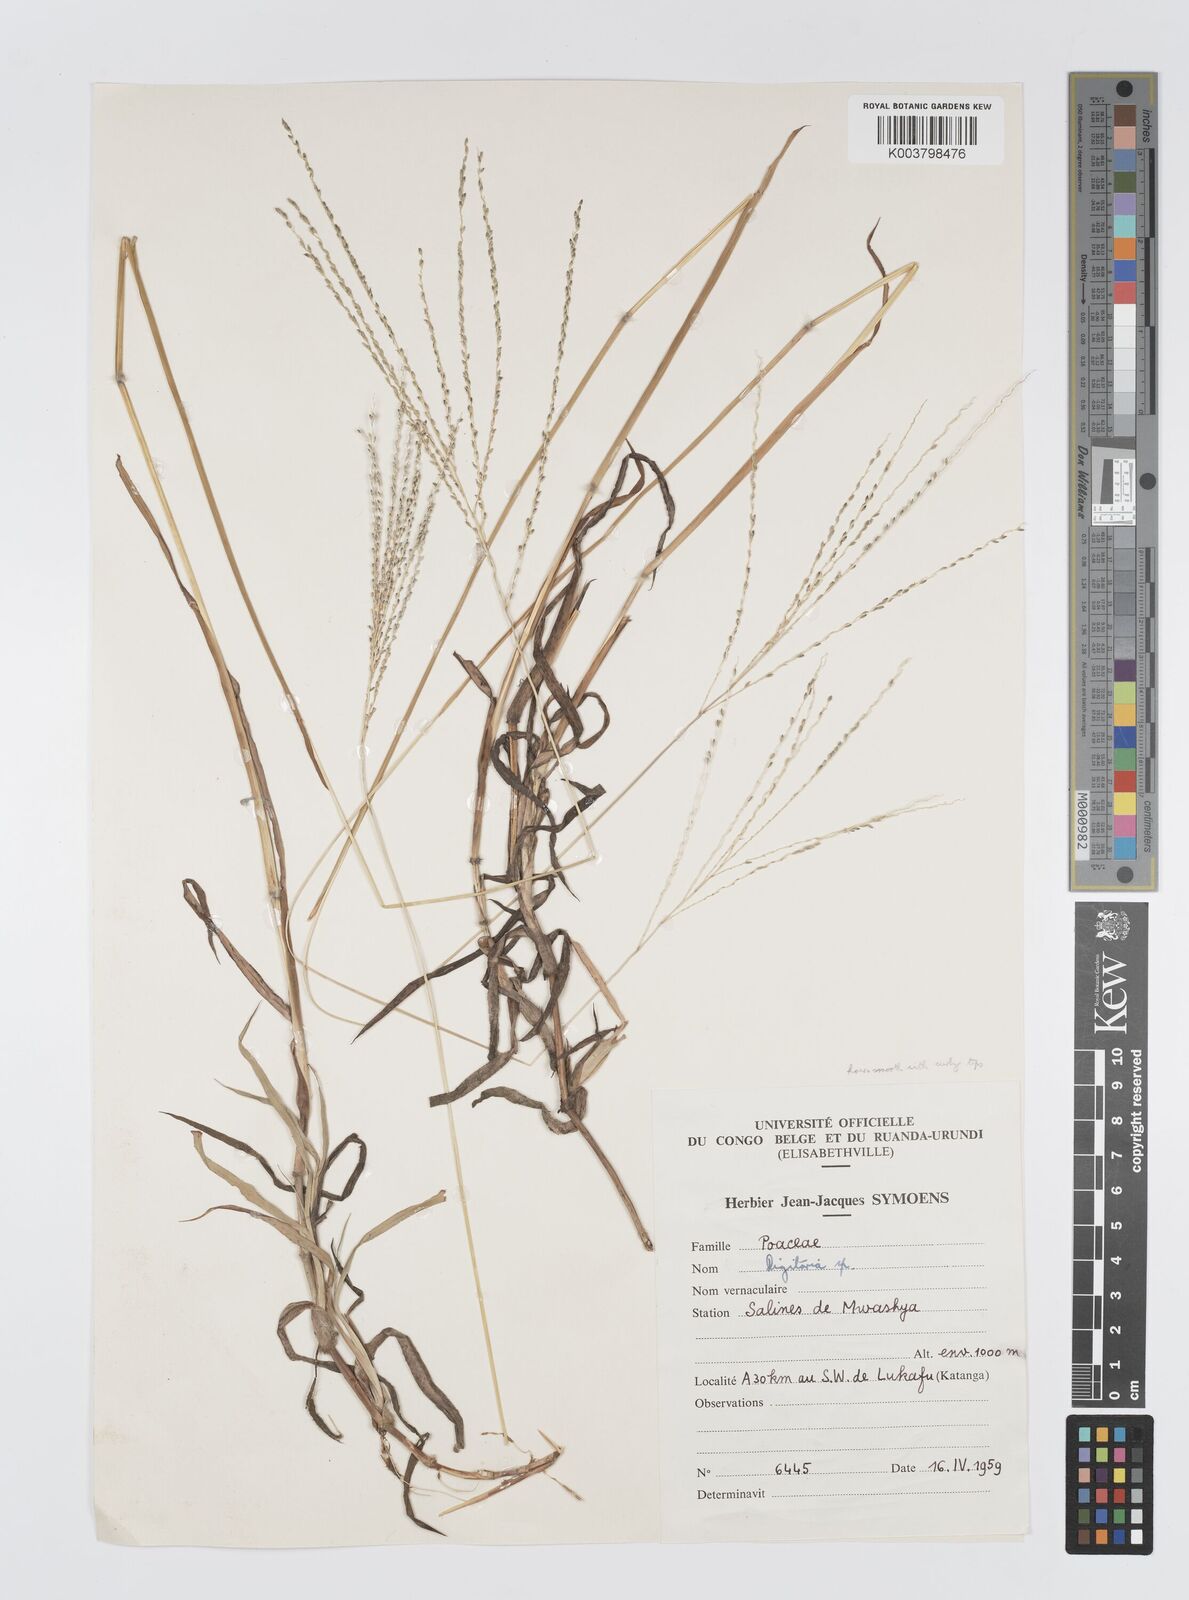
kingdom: Plantae
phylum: Tracheophyta
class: Liliopsida
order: Poales
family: Poaceae
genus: Digitaria
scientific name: Digitaria leptorhachis
